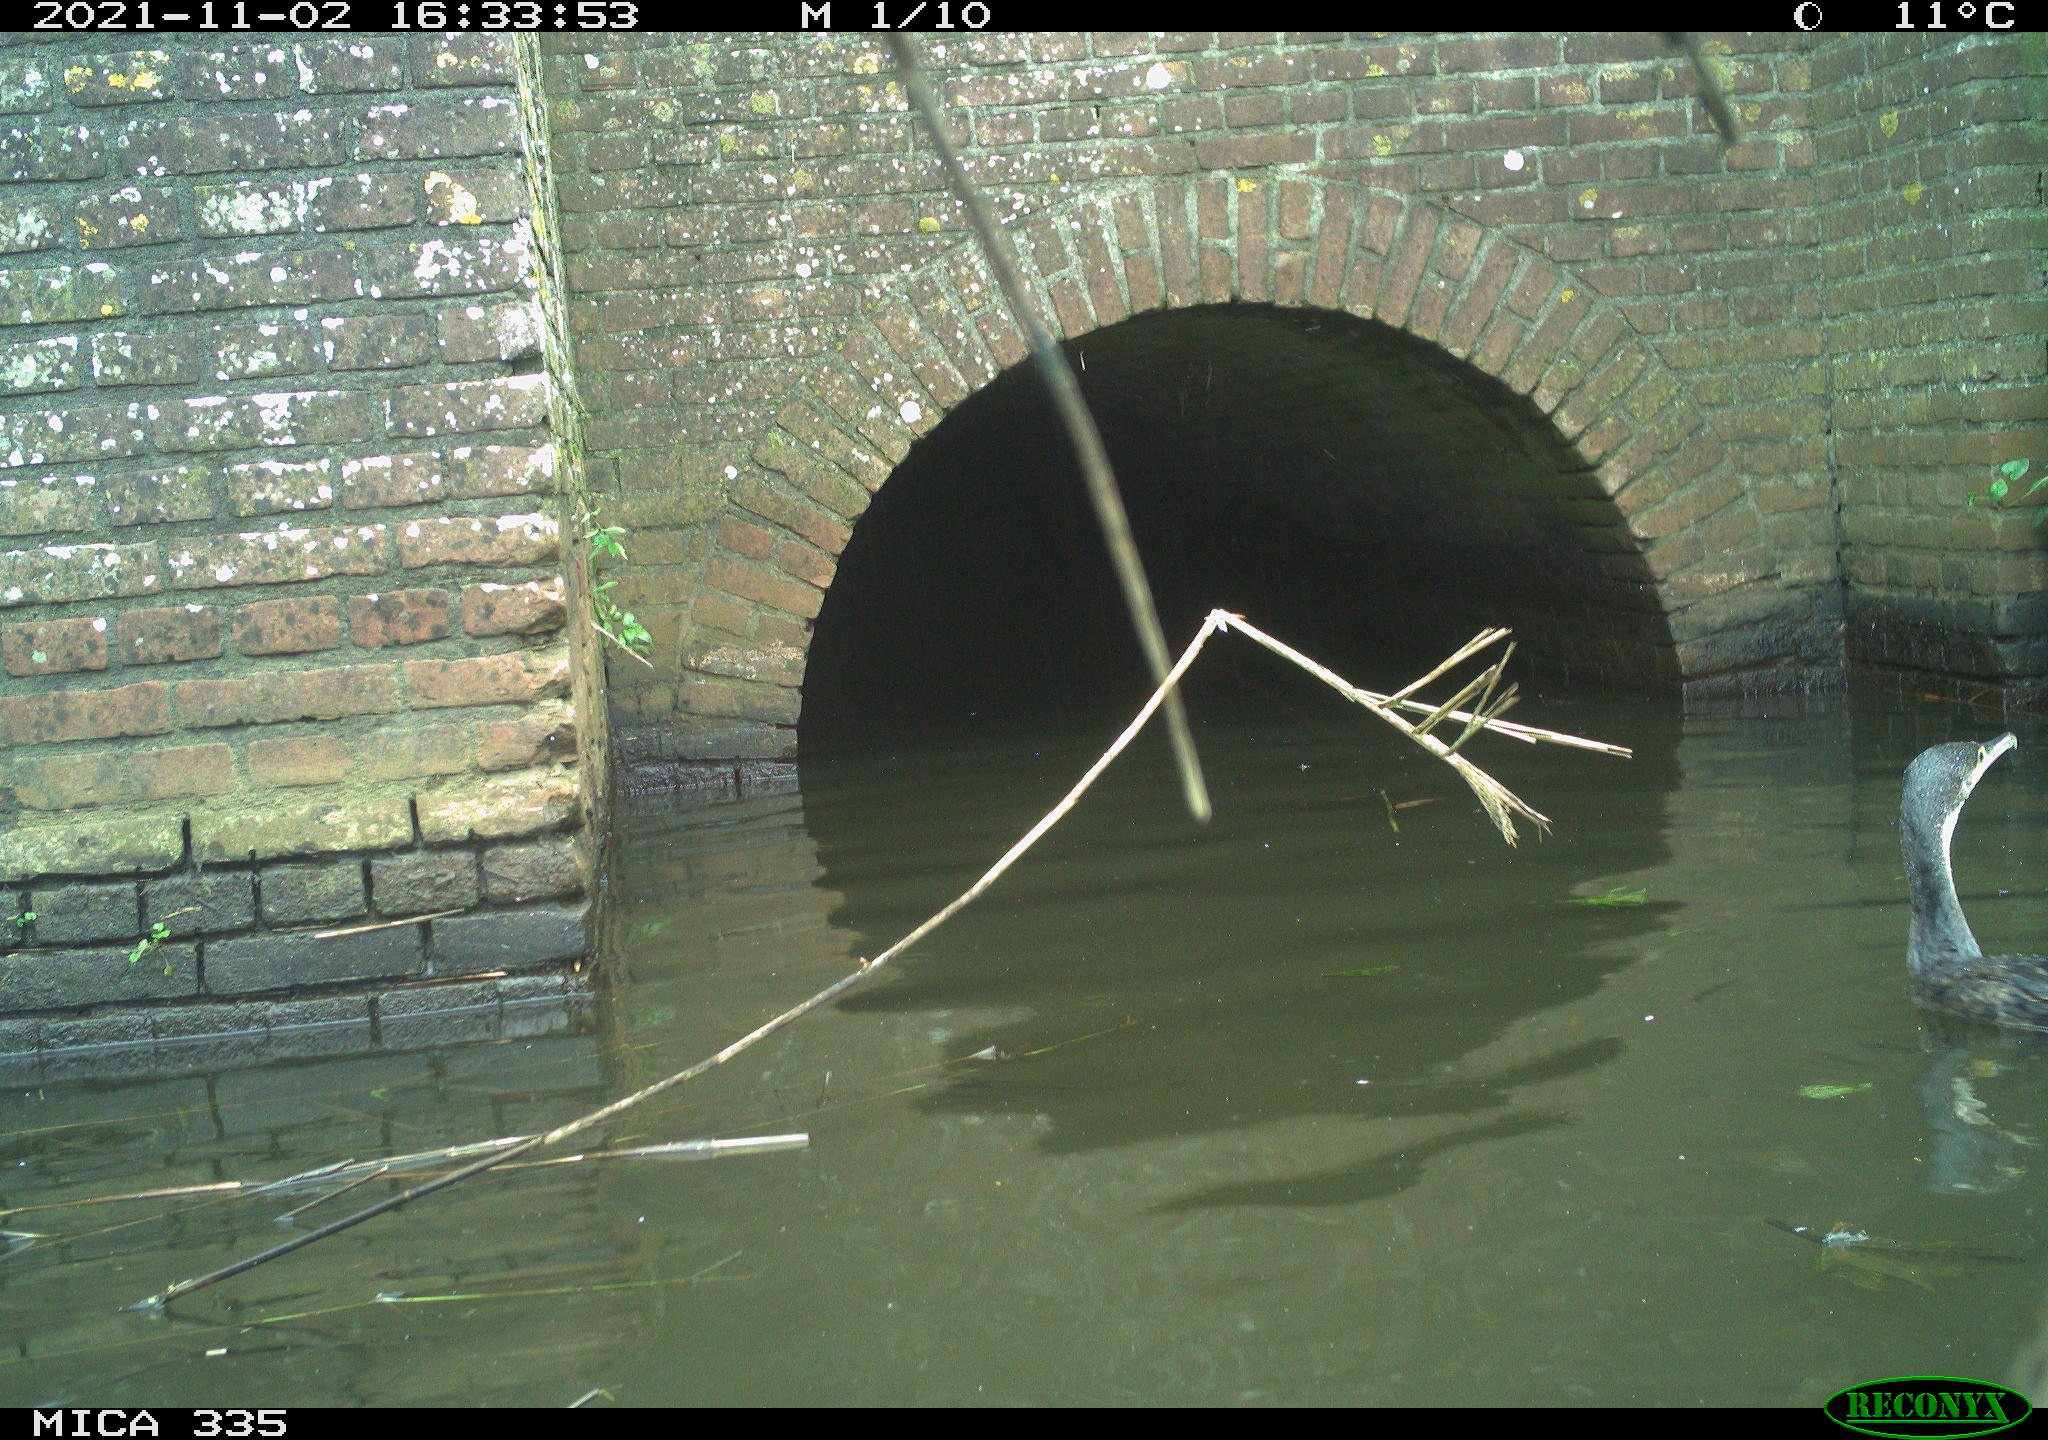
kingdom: Animalia
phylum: Chordata
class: Aves
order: Suliformes
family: Phalacrocoracidae
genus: Phalacrocorax
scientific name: Phalacrocorax carbo
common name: Great cormorant
